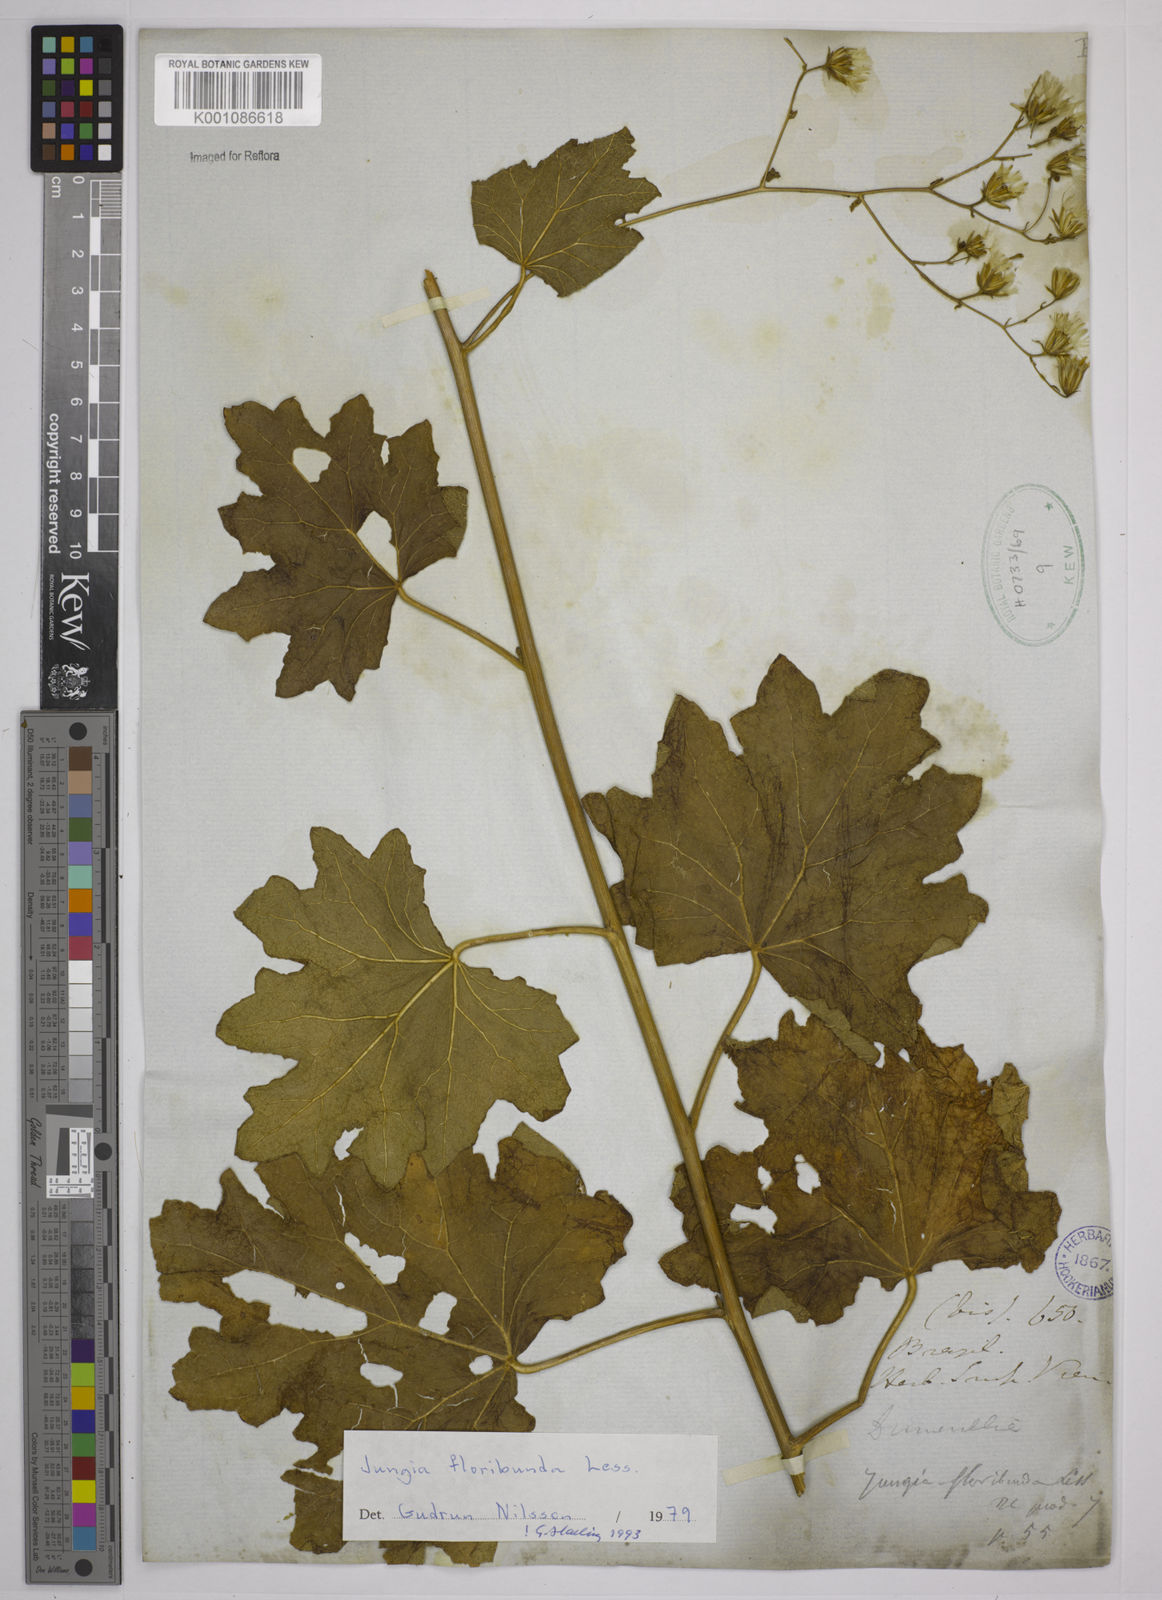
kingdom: Plantae
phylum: Tracheophyta
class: Magnoliopsida
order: Asterales
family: Asteraceae
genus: Jungia
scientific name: Jungia floribunda
